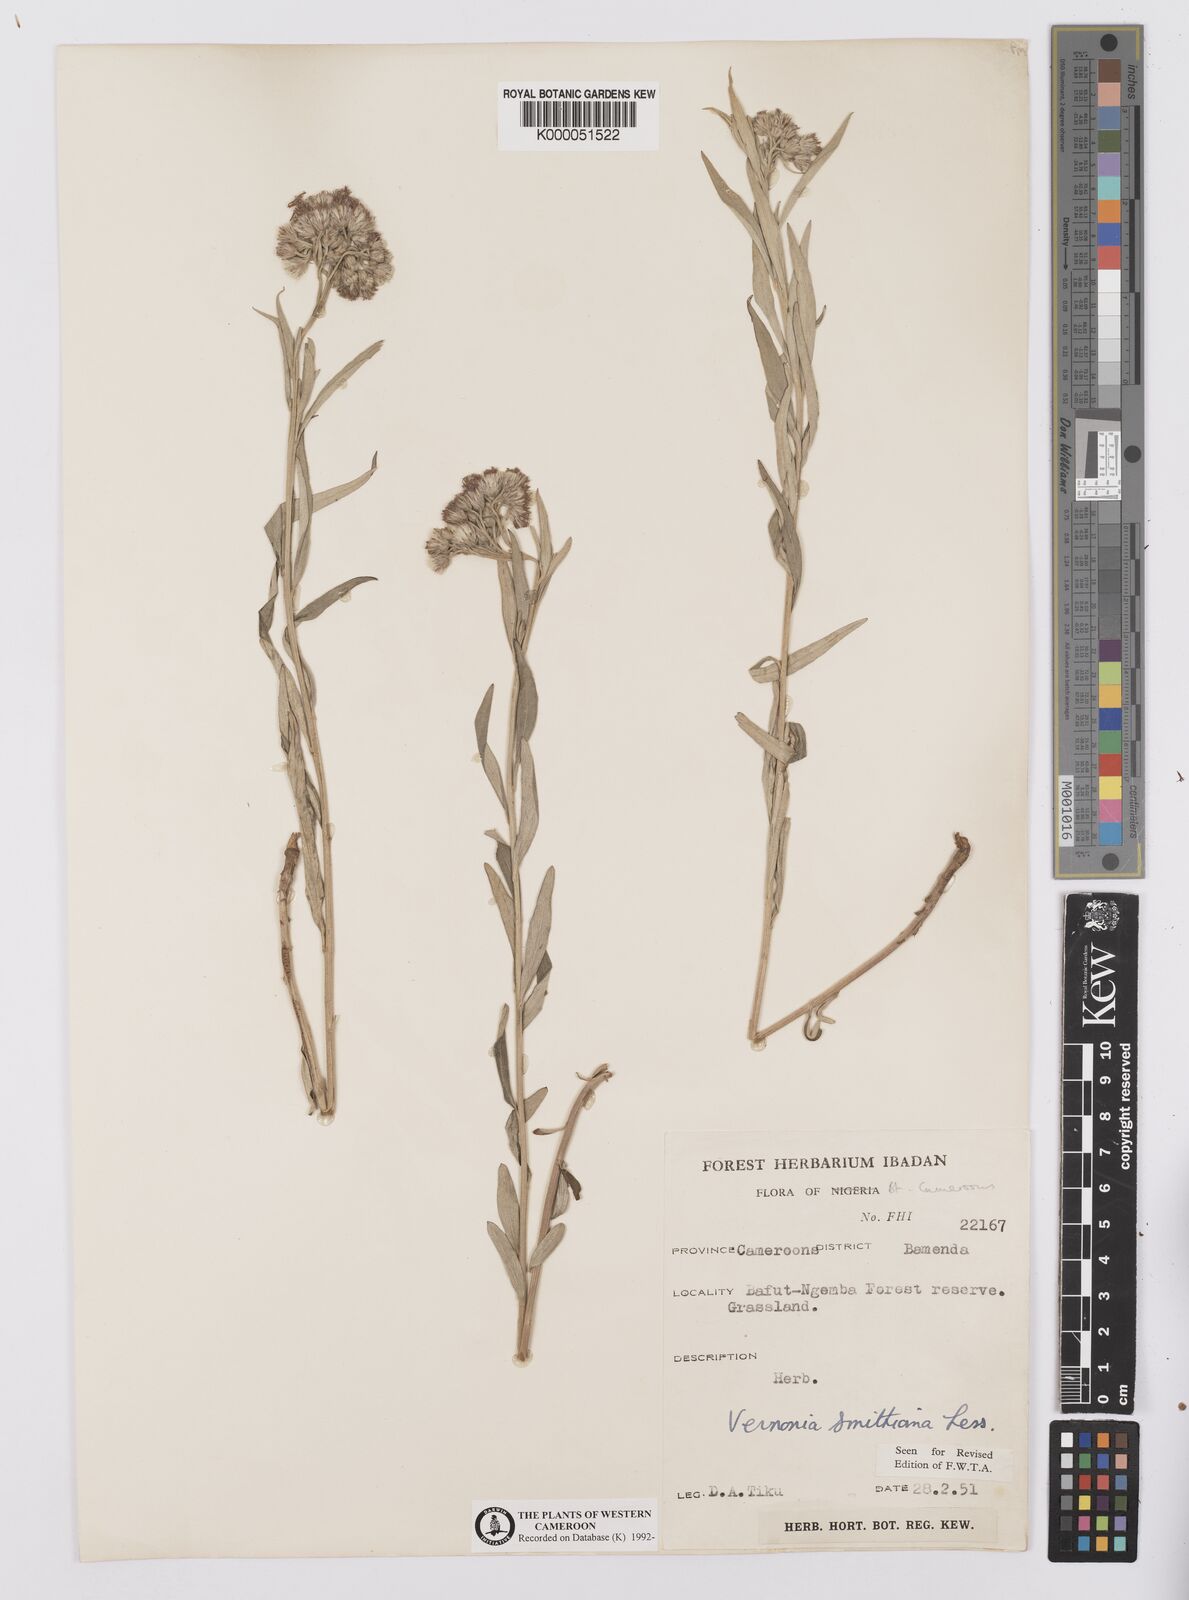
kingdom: Plantae
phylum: Tracheophyta
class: Magnoliopsida
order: Asterales
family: Asteraceae
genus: Hilliardiella
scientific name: Hilliardiella smithiana
